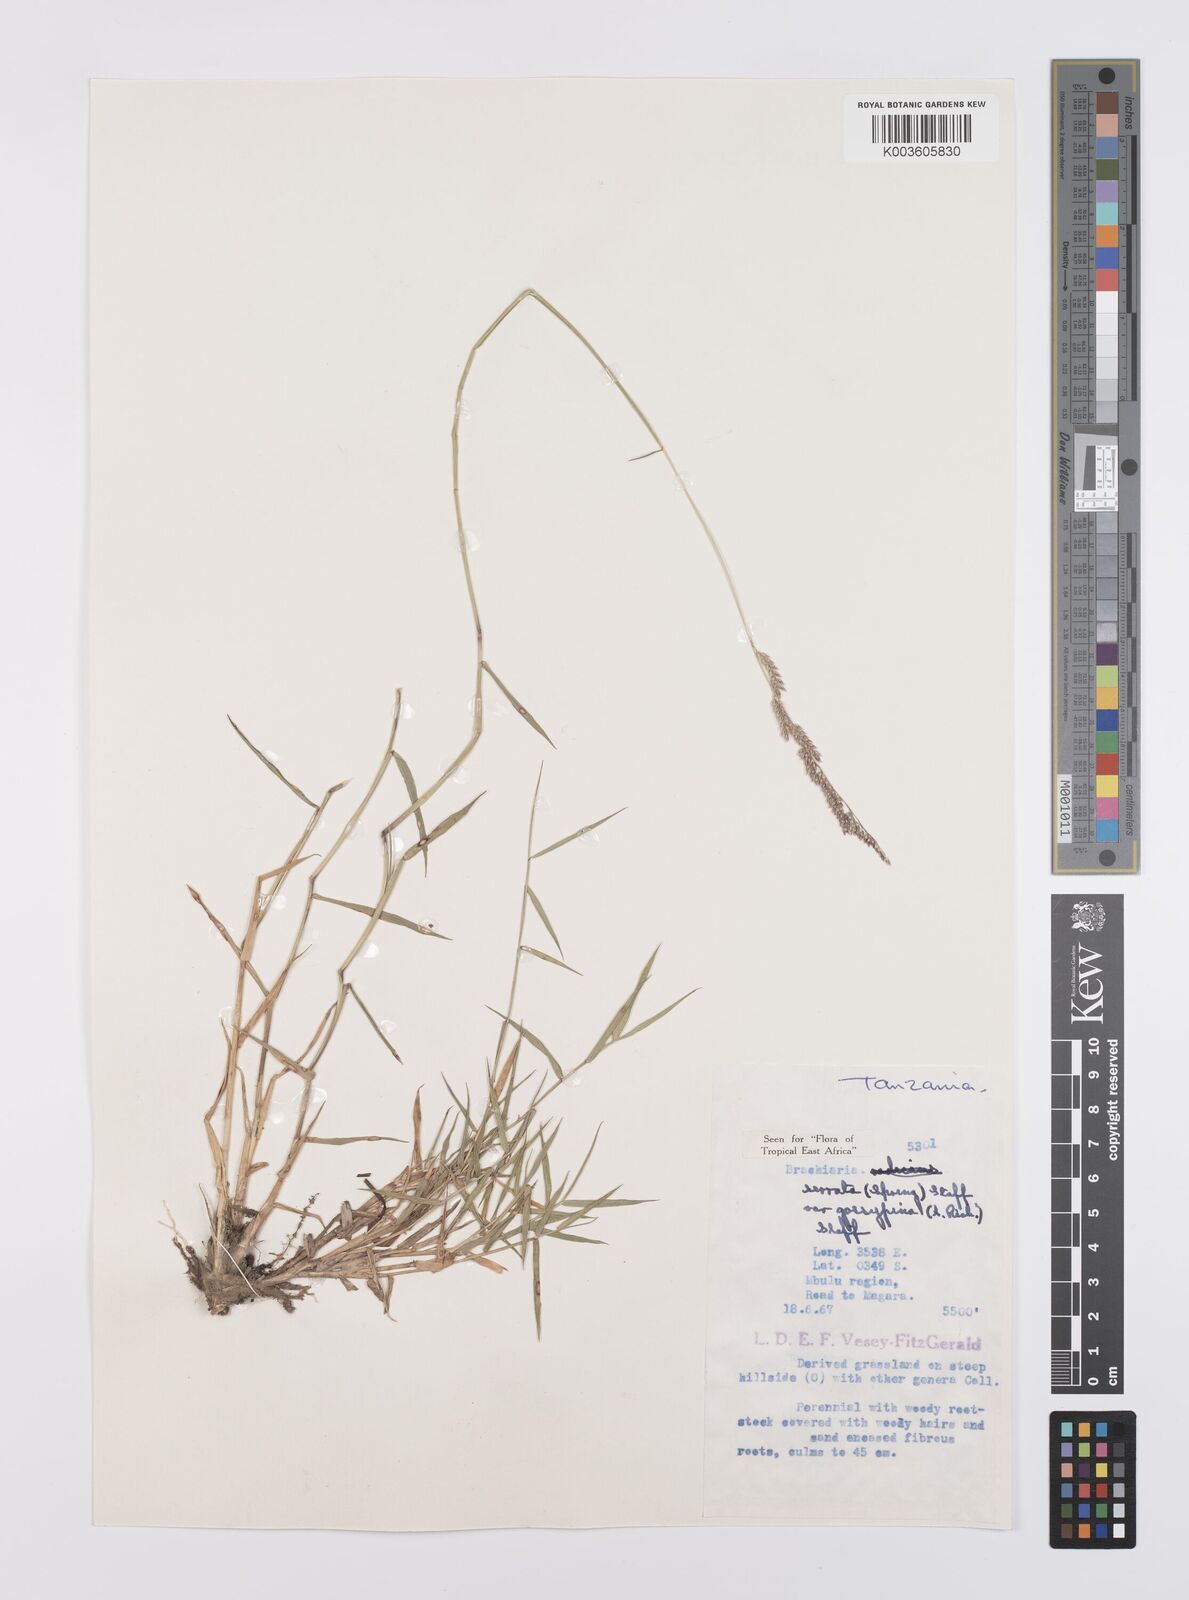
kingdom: Plantae
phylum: Tracheophyta
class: Liliopsida
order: Poales
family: Poaceae
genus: Urochloa
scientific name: Urochloa serrata
